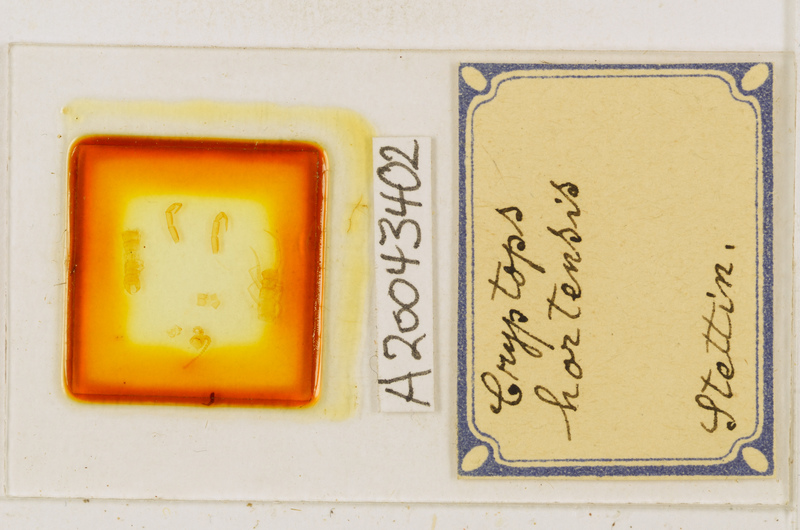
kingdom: Animalia
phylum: Arthropoda
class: Chilopoda
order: Scolopendromorpha
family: Cryptopidae
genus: Cryptops
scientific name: Cryptops hortensis
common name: Centipede
